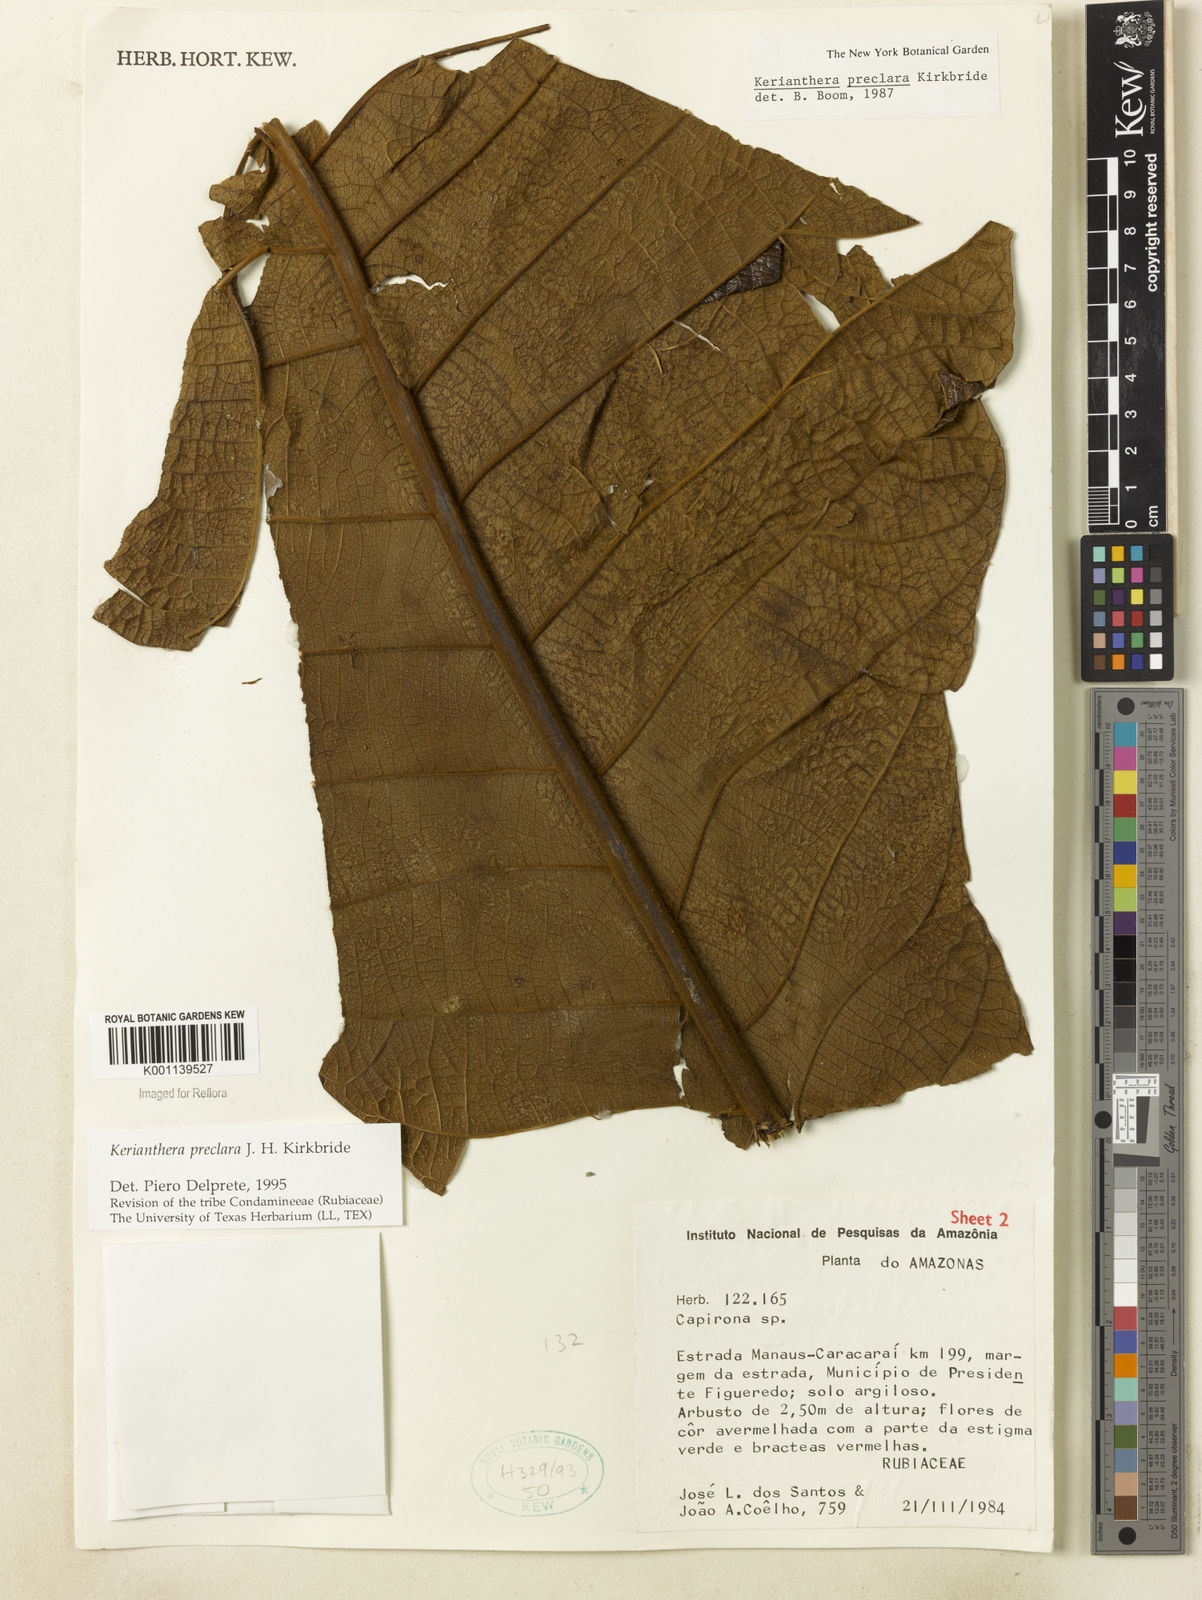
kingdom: Plantae
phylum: Tracheophyta
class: Magnoliopsida
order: Gentianales
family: Rubiaceae
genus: Kerianthera
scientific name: Kerianthera preclara
